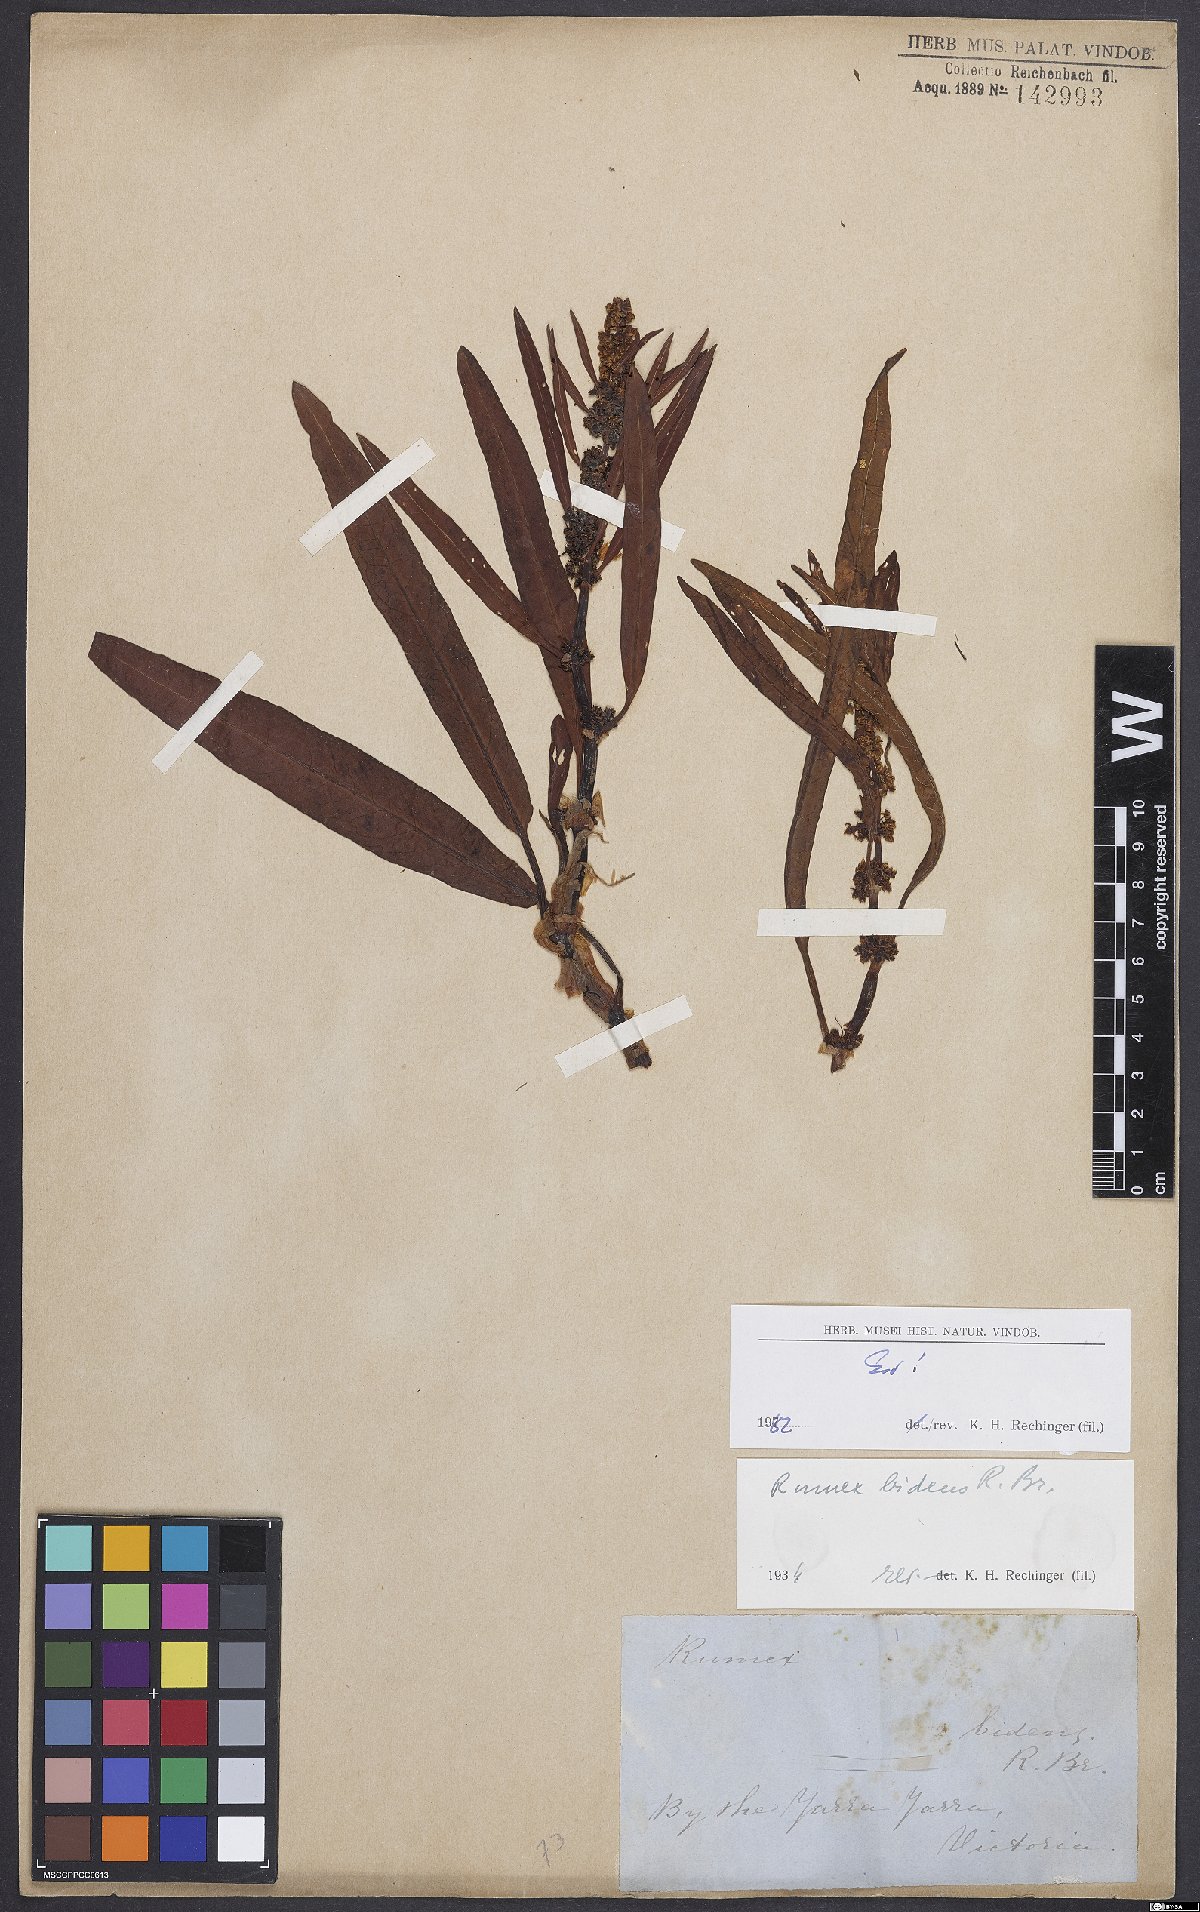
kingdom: Plantae
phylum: Tracheophyta
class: Magnoliopsida
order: Caryophyllales
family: Polygonaceae
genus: Rumex
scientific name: Rumex
